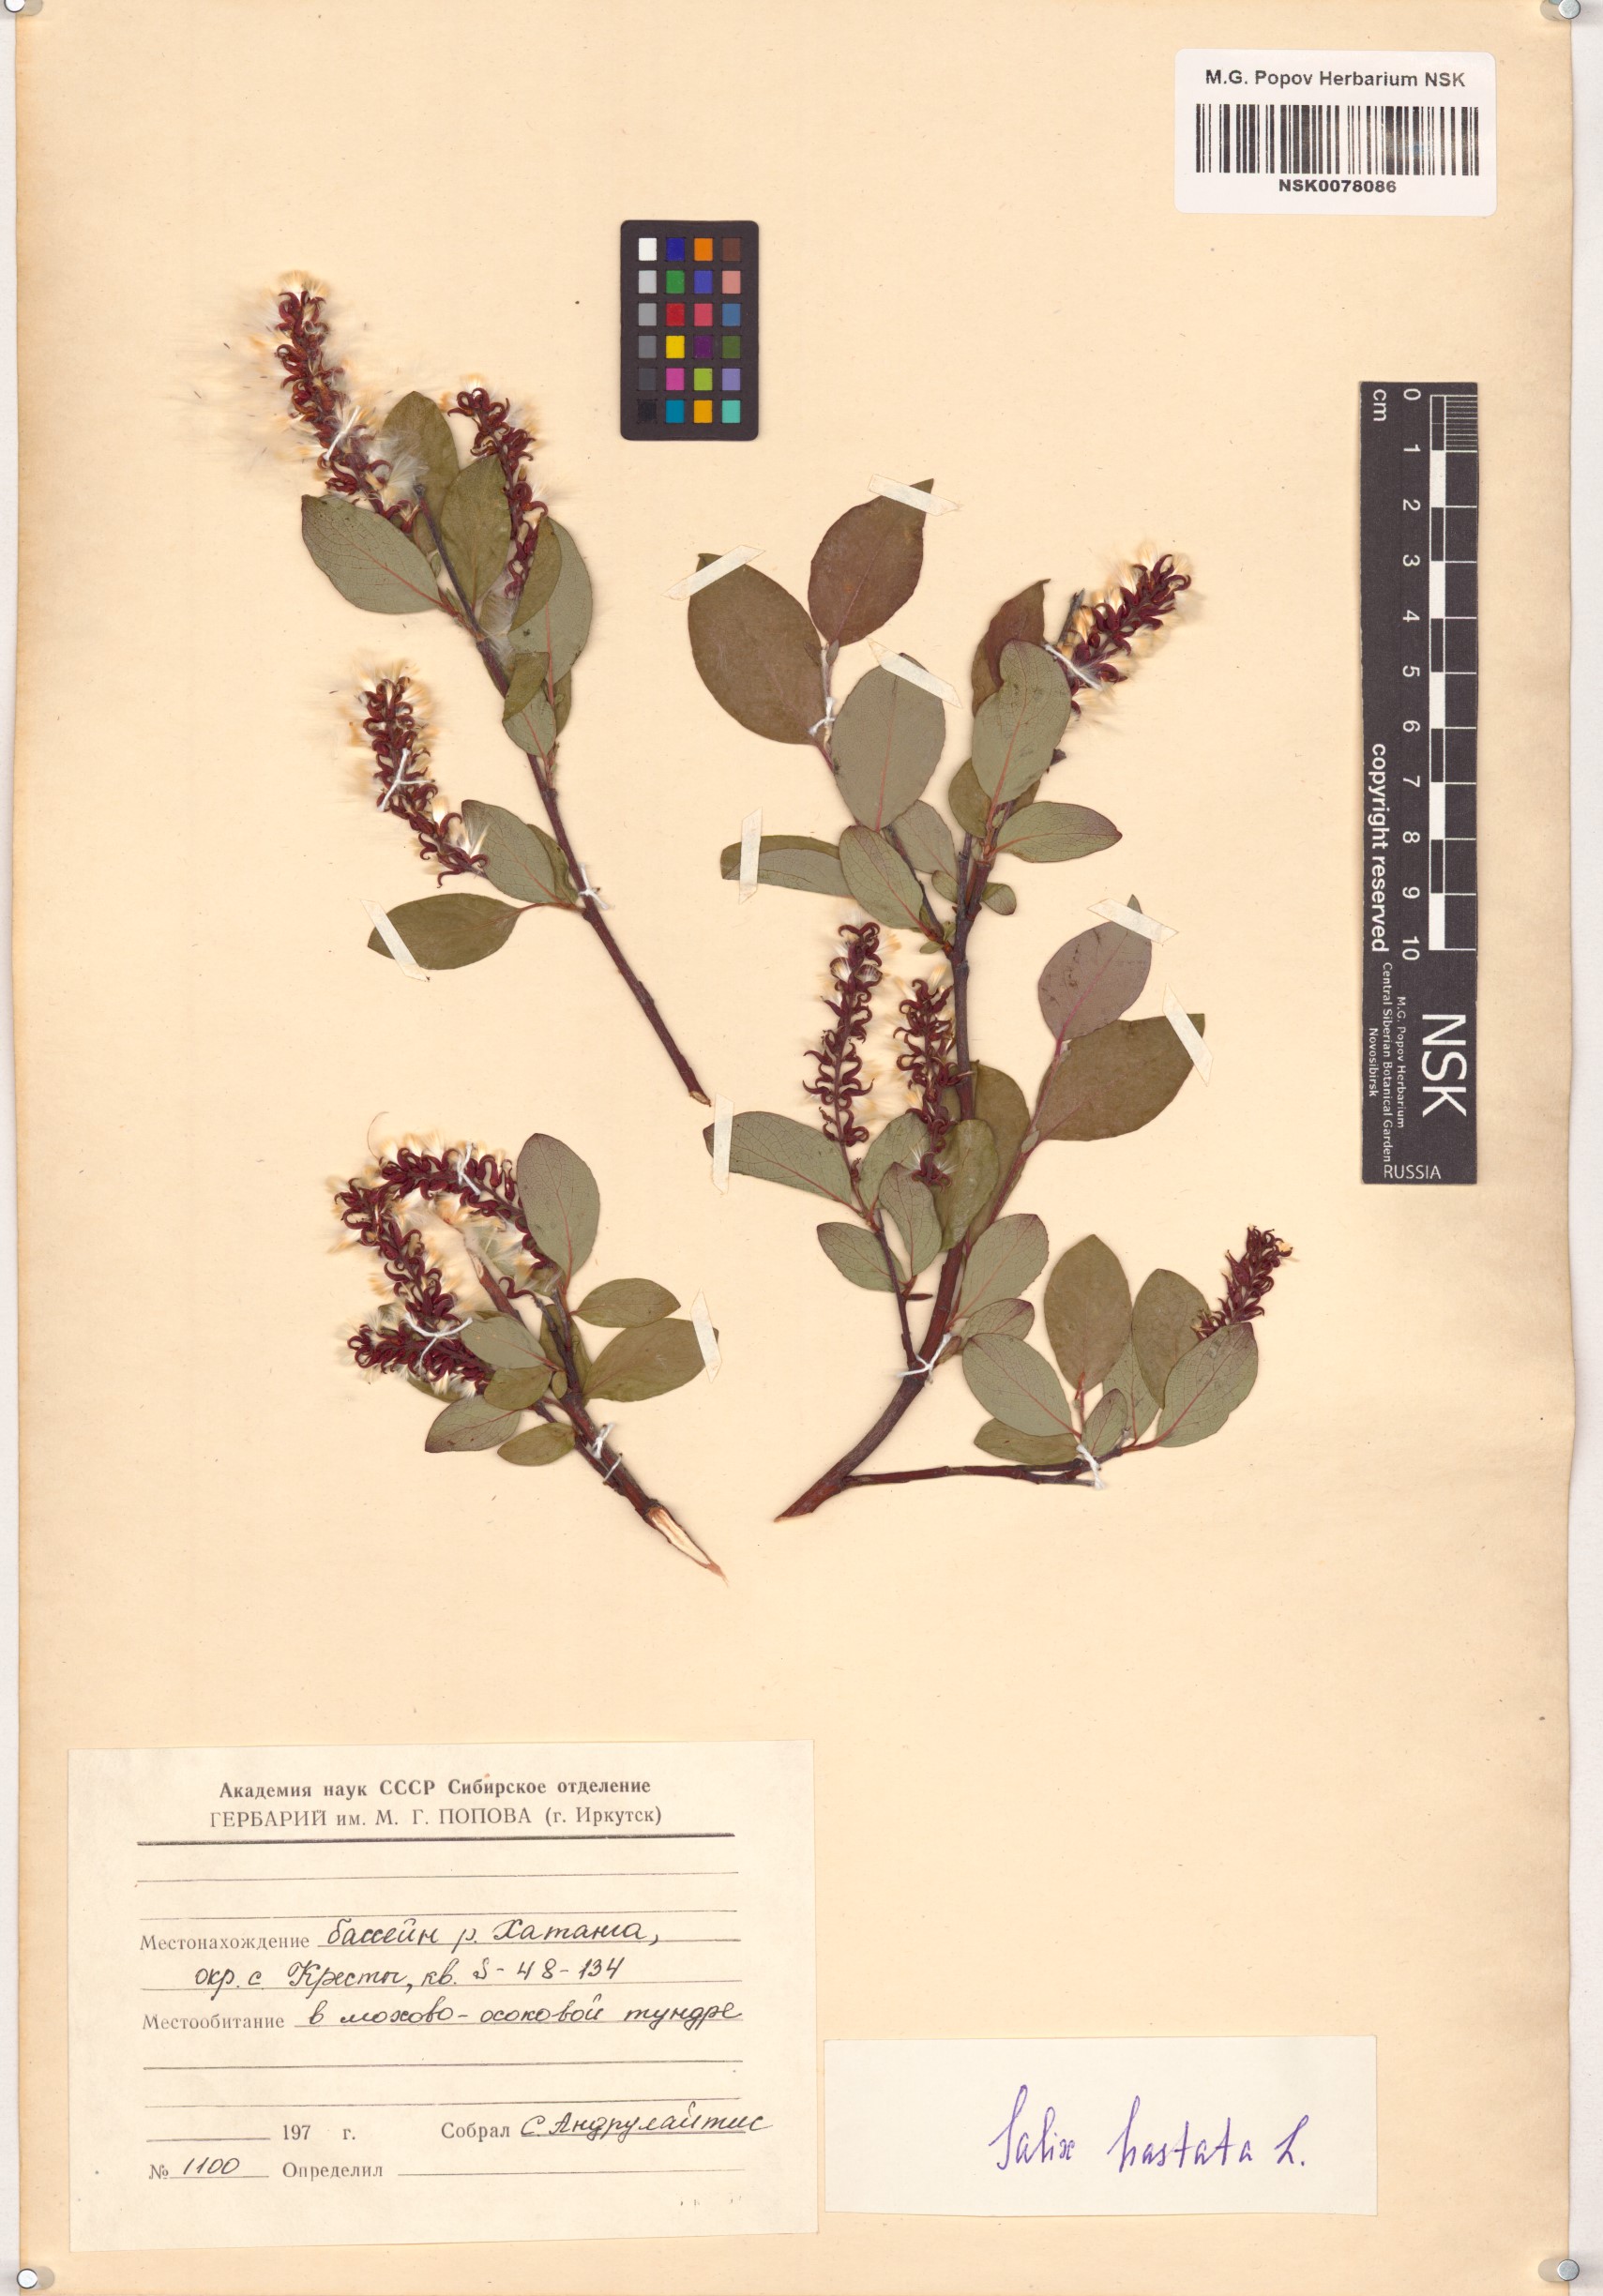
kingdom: Plantae
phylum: Tracheophyta
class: Magnoliopsida
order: Malpighiales
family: Salicaceae
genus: Salix
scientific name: Salix hastata
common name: Halberd willow
